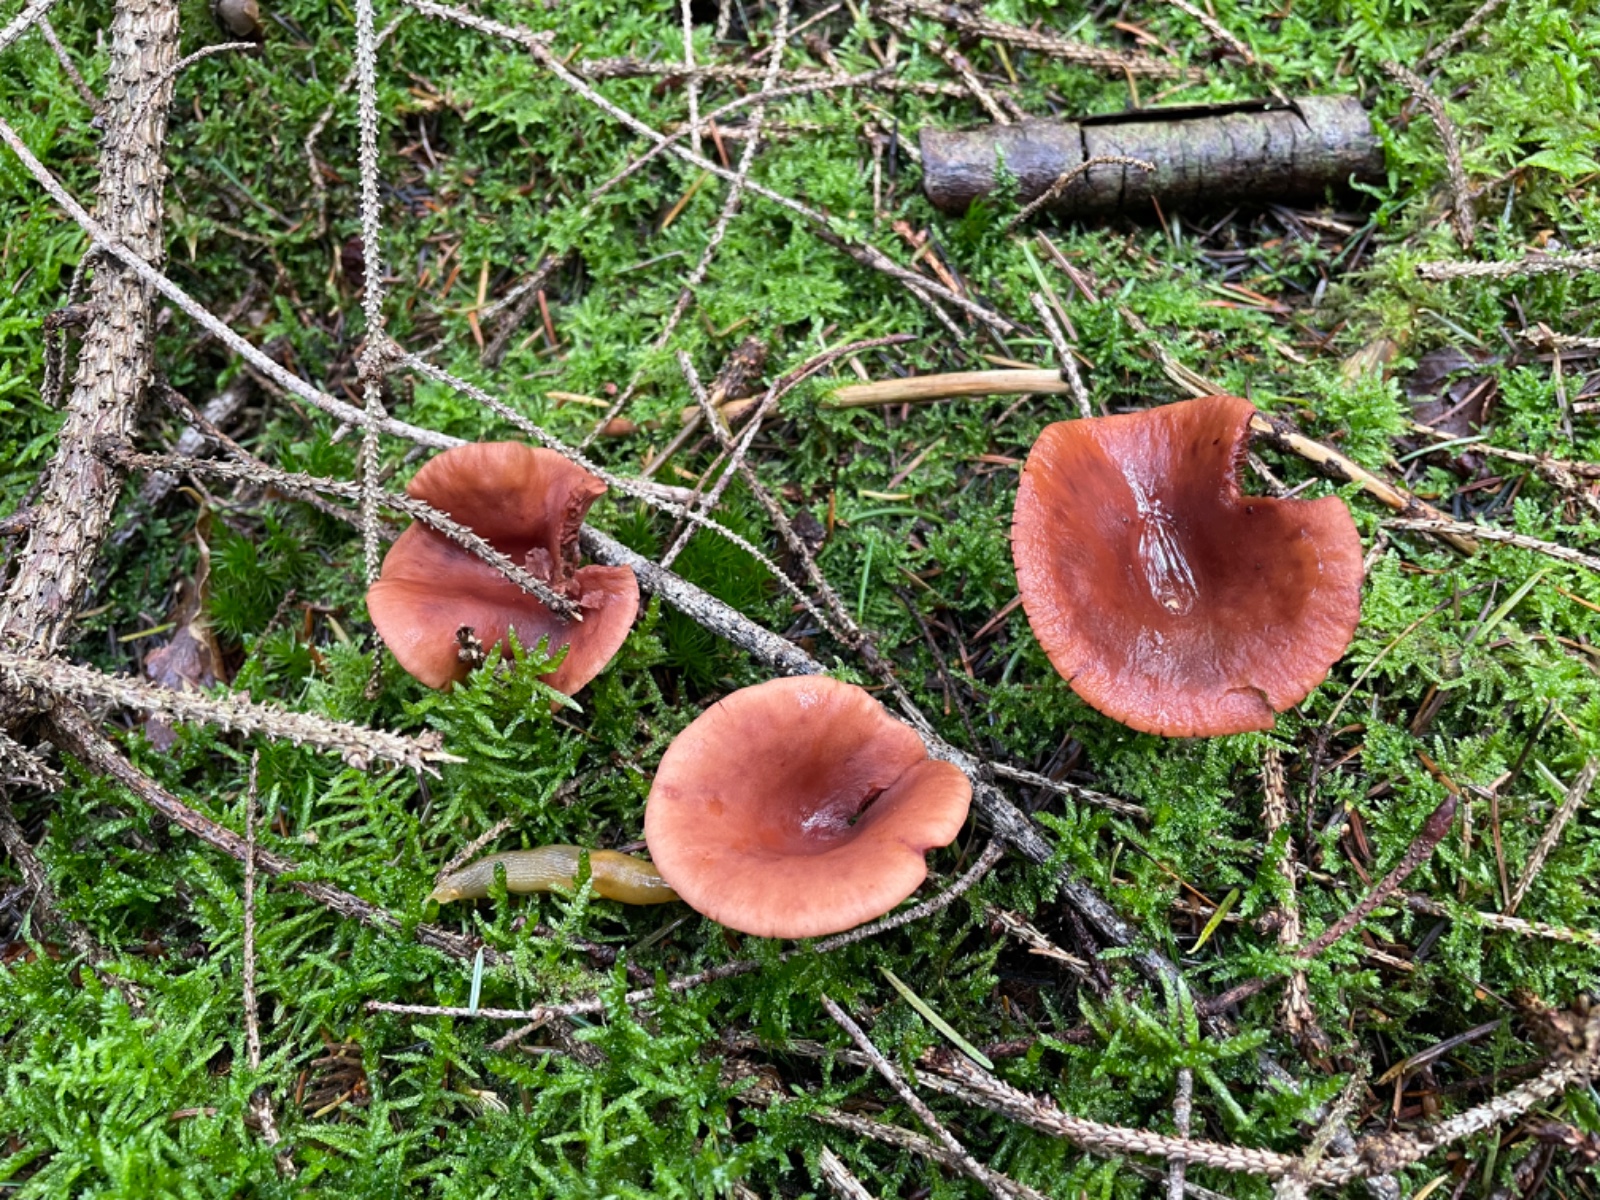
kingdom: Fungi
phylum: Basidiomycota
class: Agaricomycetes
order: Russulales
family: Russulaceae
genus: Lactarius
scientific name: Lactarius camphoratus
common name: kamfer-mælkehat
